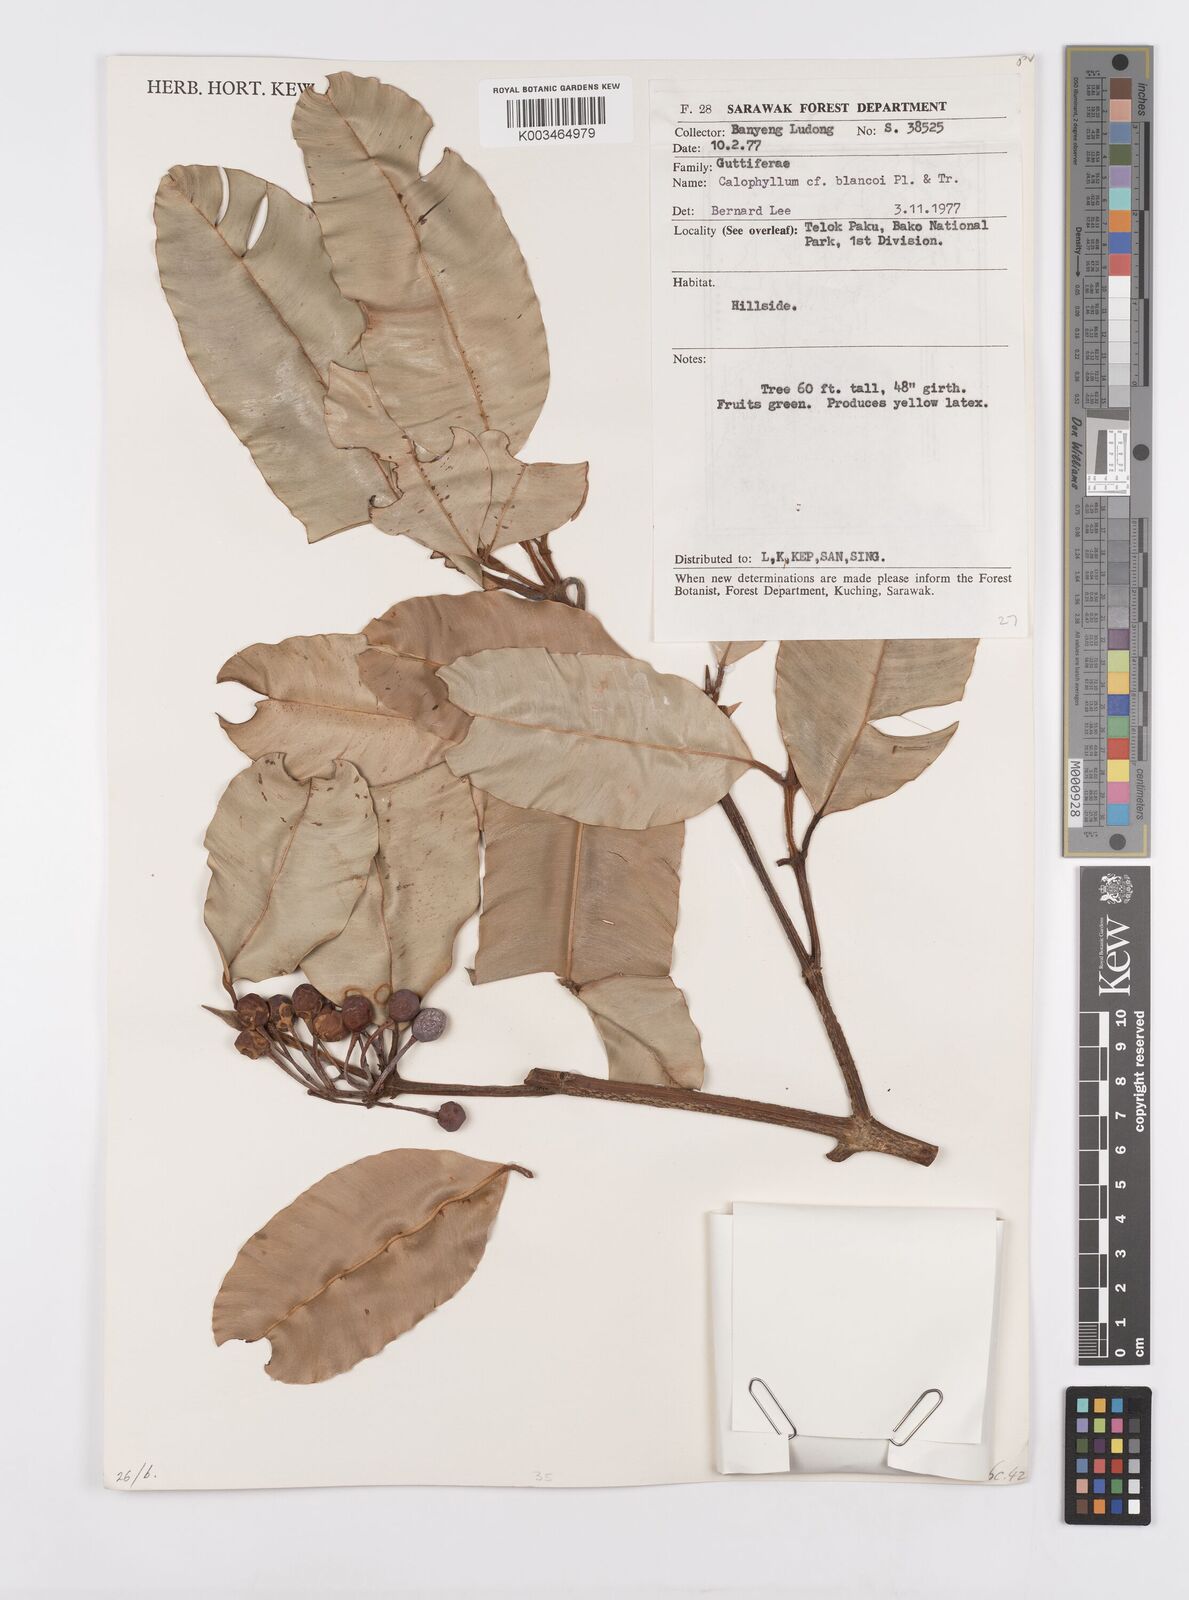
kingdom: Plantae
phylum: Tracheophyta
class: Magnoliopsida
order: Malpighiales
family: Calophyllaceae
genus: Calophyllum
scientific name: Calophyllum blancoi
